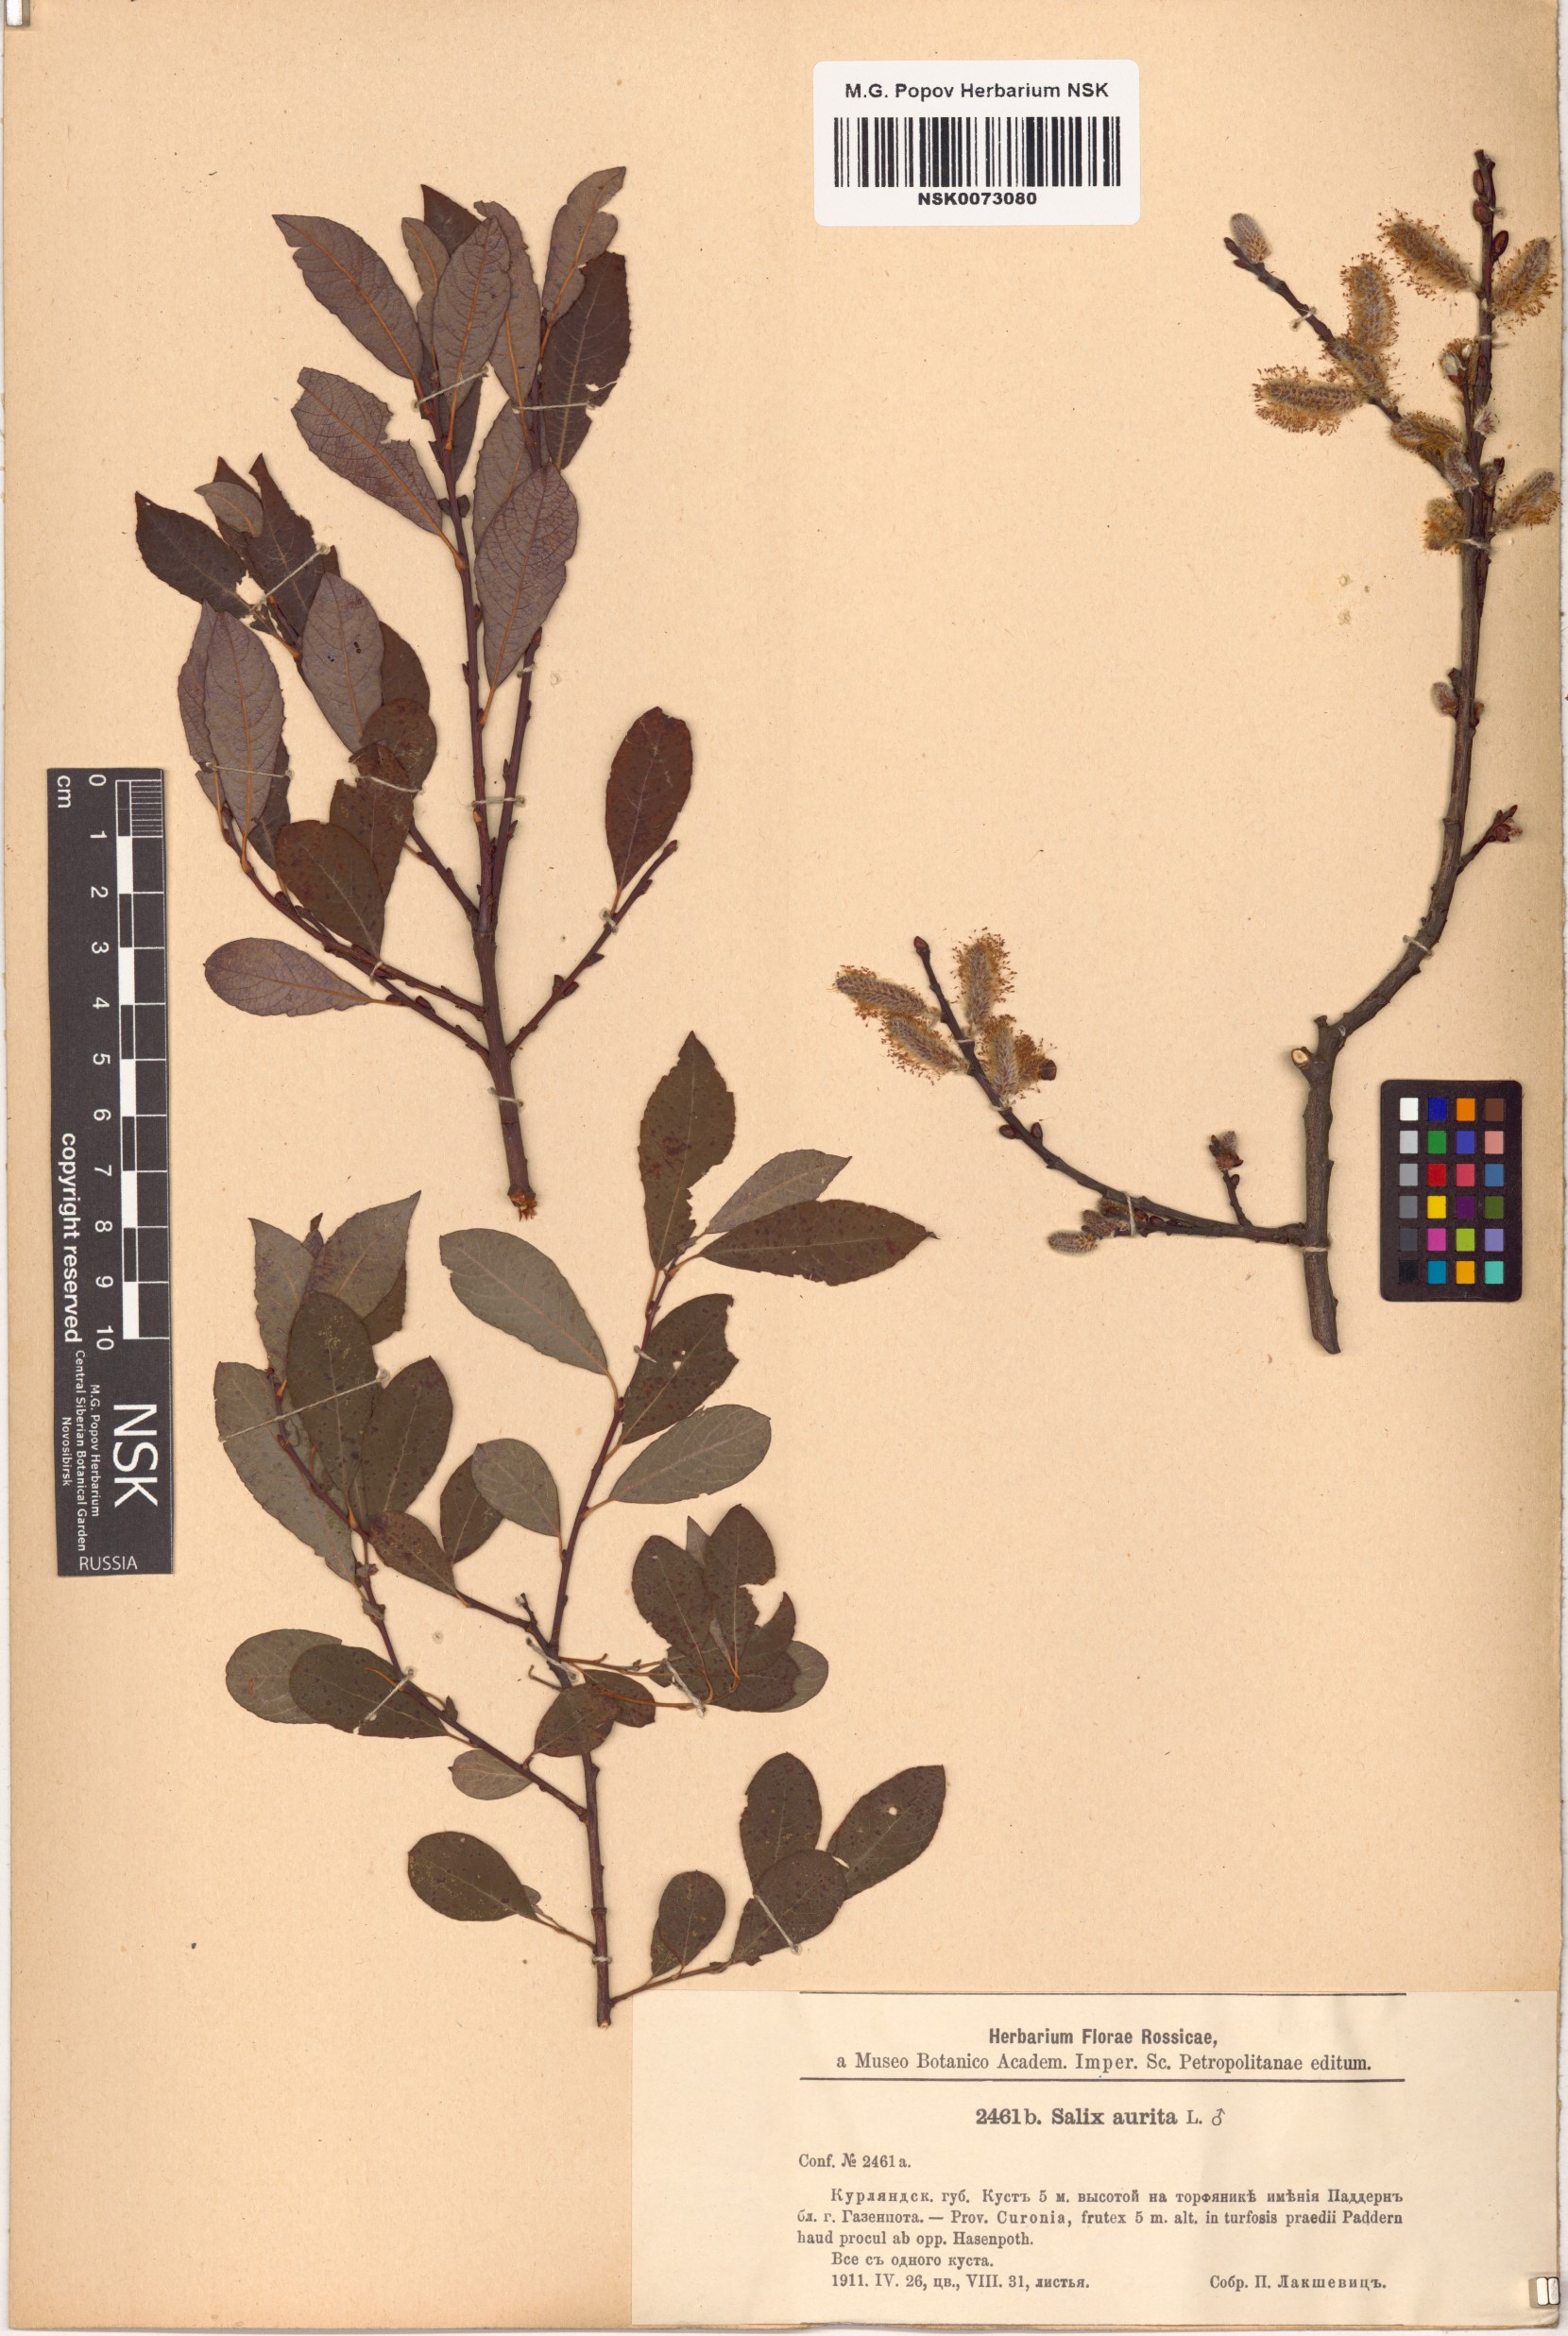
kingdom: Plantae
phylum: Tracheophyta
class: Magnoliopsida
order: Malpighiales
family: Salicaceae
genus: Salix
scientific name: Salix aurita
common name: Eared willow
